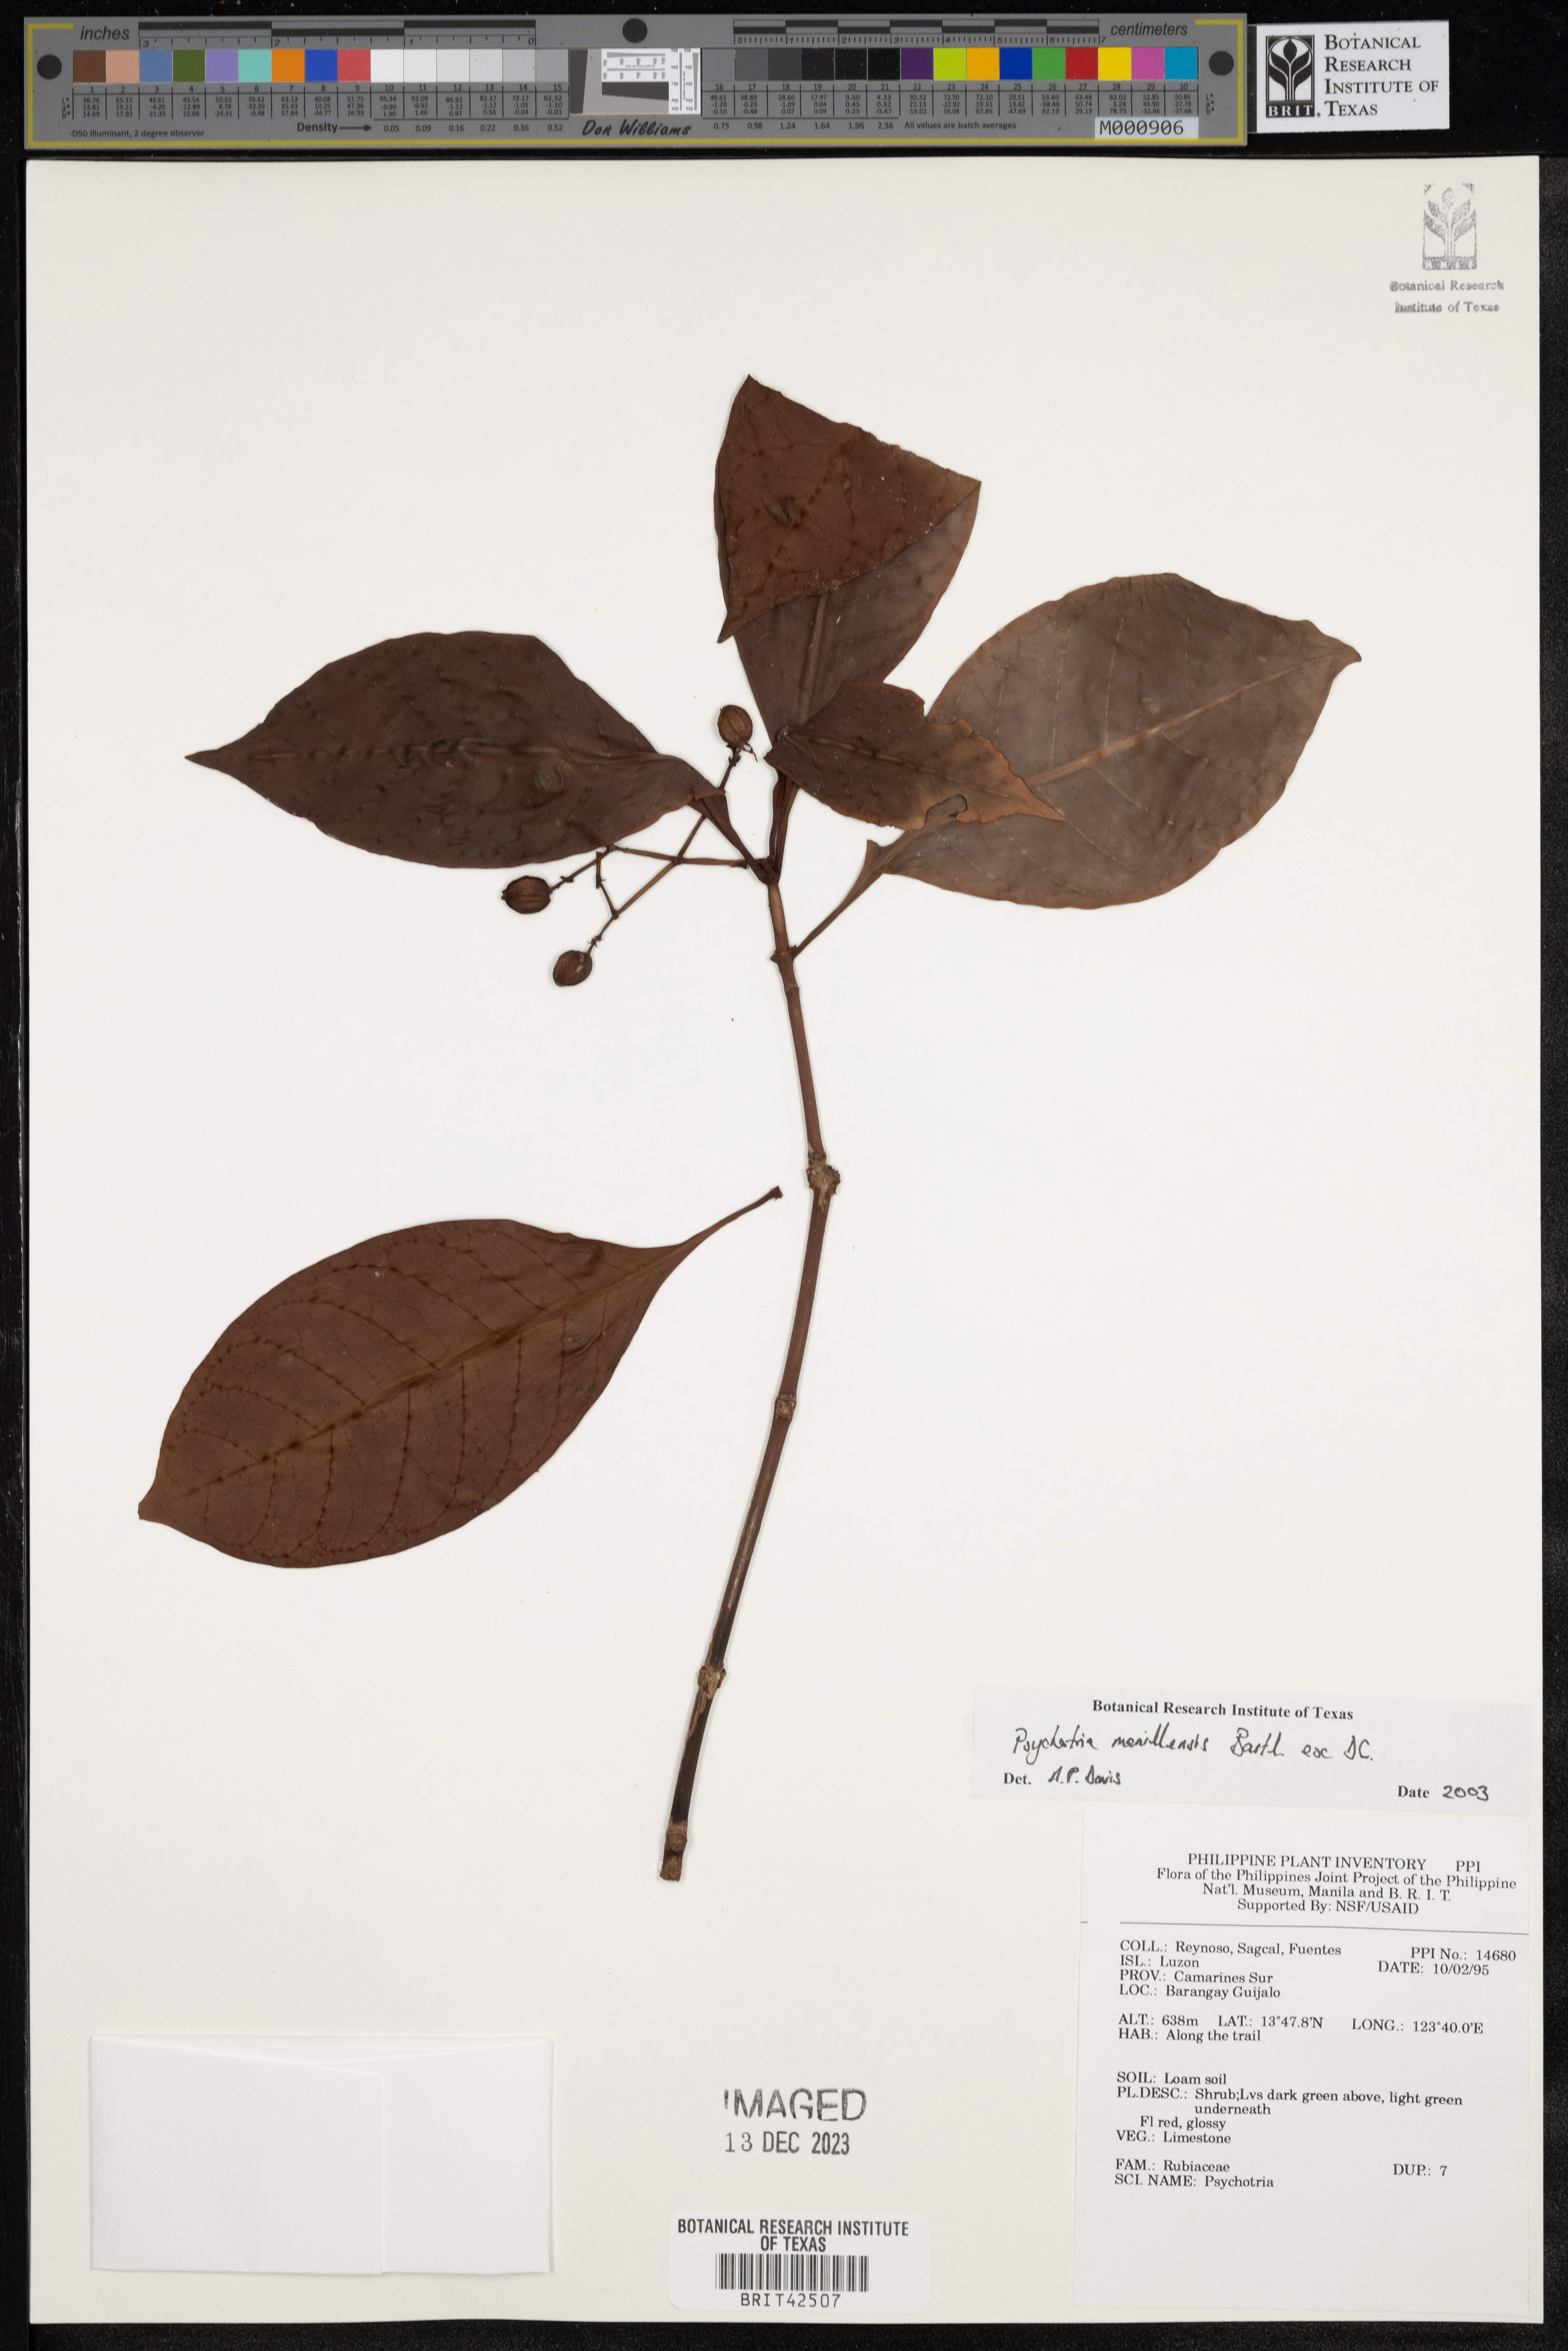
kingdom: Plantae
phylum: Tracheophyta
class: Magnoliopsida
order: Gentianales
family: Rubiaceae
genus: Psychotria
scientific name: Psychotria manillensis
